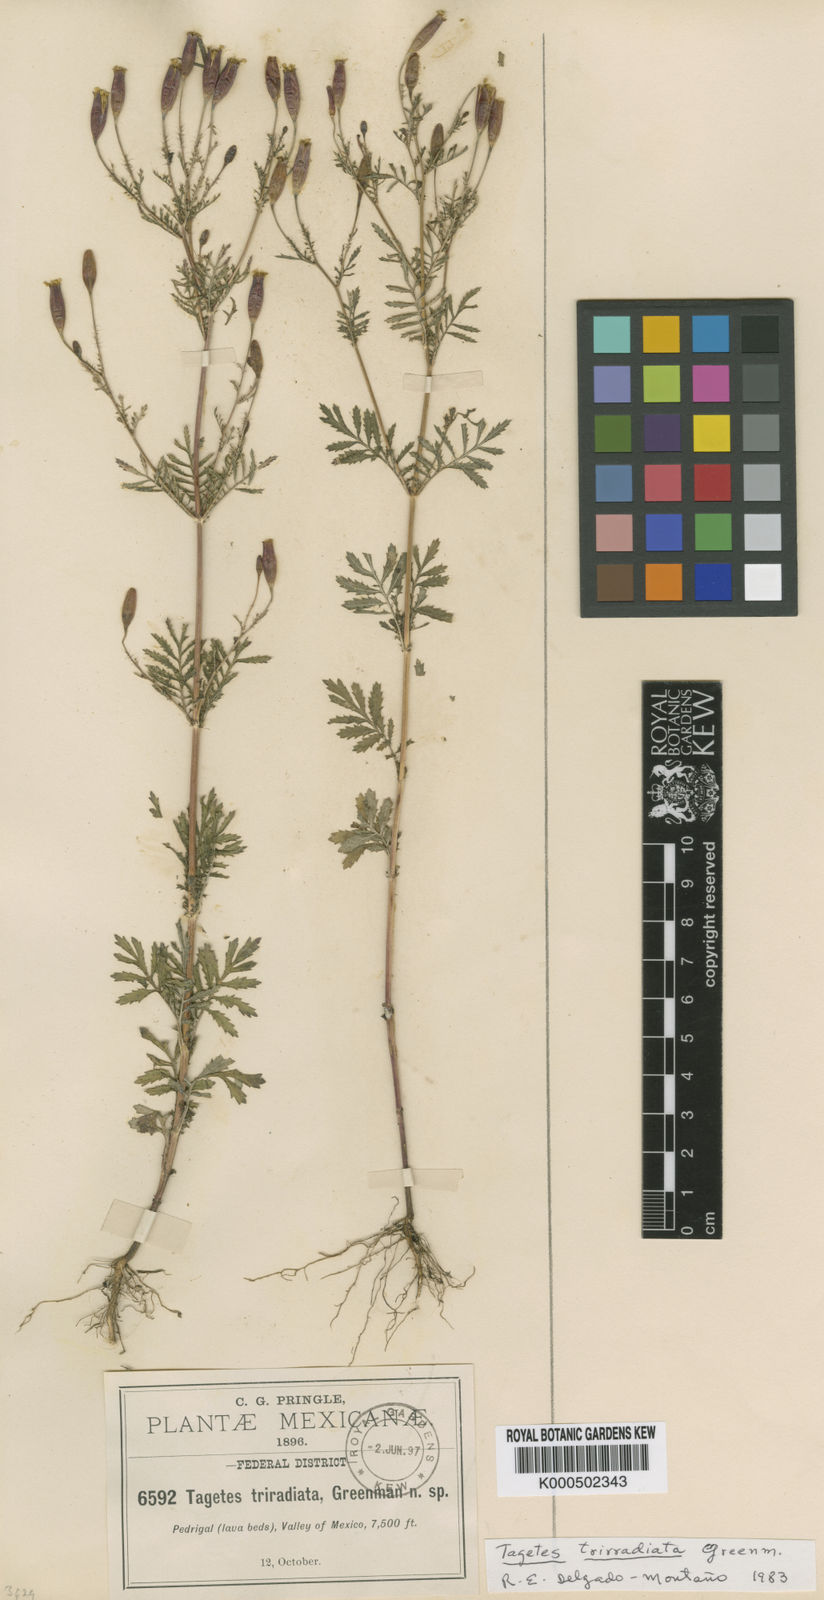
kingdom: Plantae
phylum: Tracheophyta
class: Magnoliopsida
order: Asterales
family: Asteraceae
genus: Tagetes
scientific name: Tagetes triradiata
